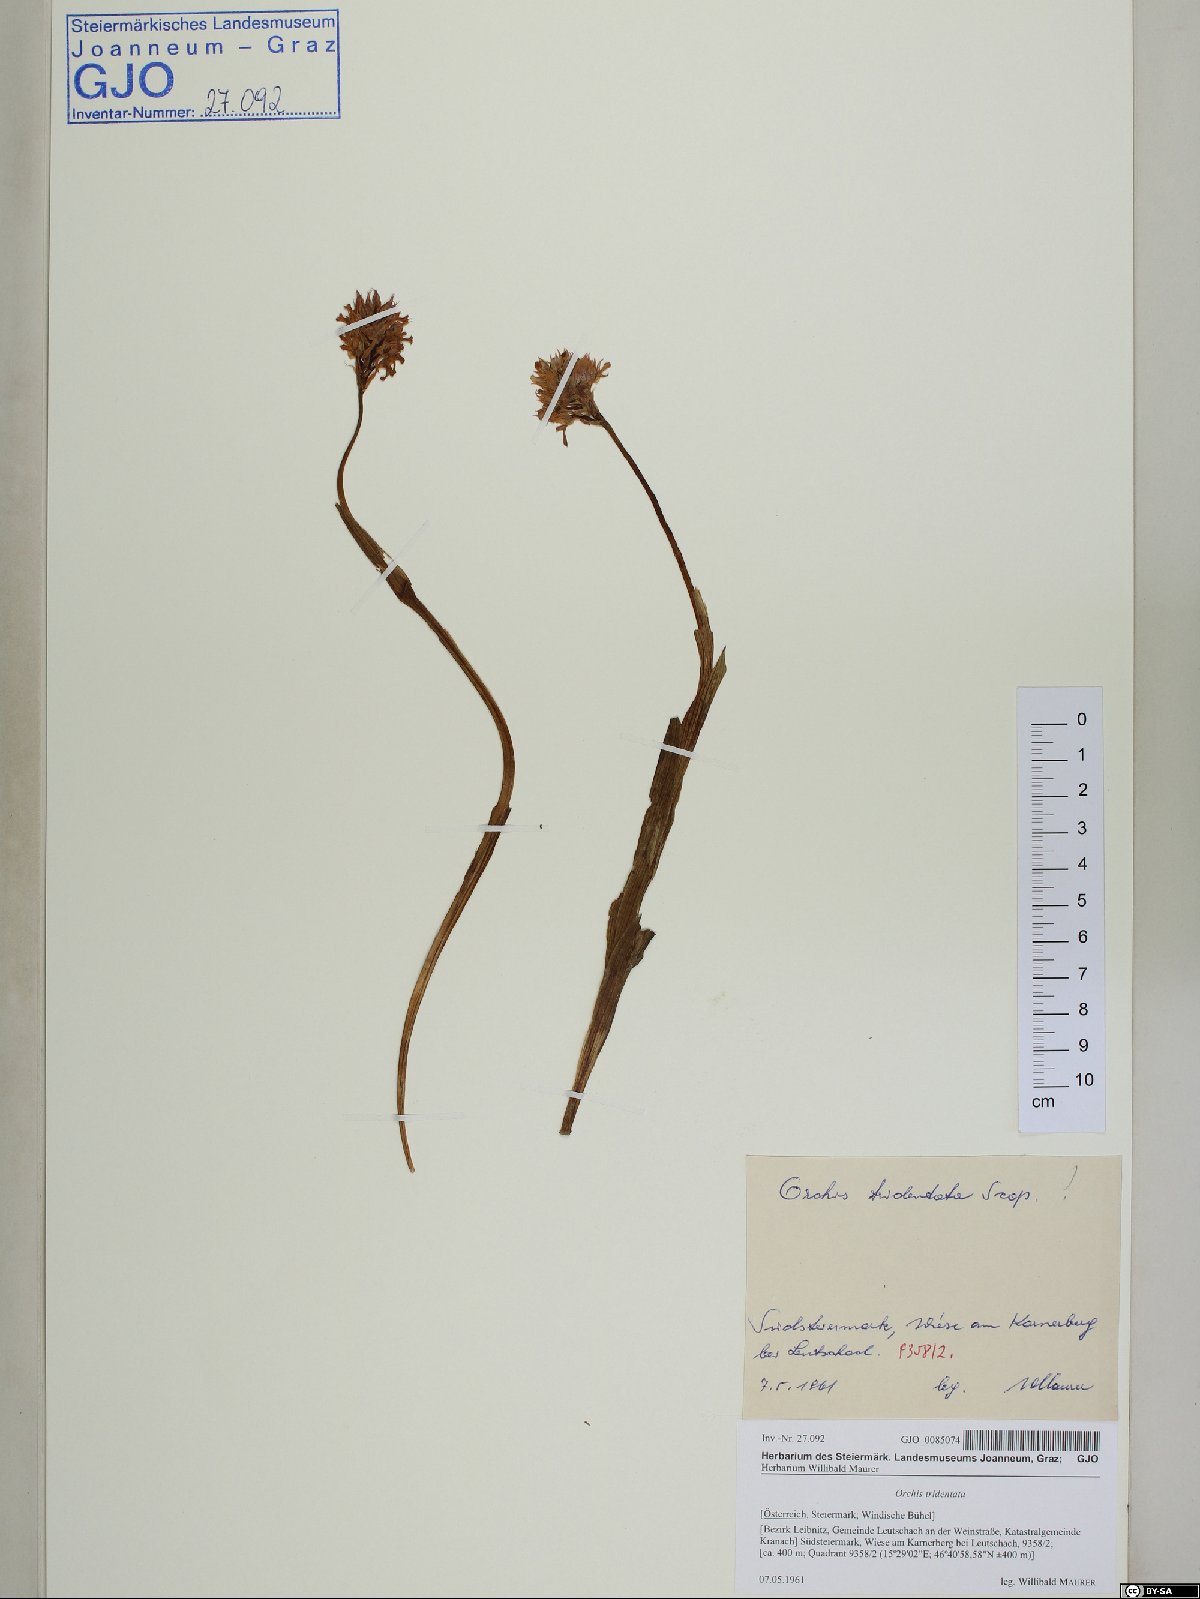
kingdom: Plantae
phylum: Tracheophyta
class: Liliopsida
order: Asparagales
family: Orchidaceae
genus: Neotinea
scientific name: Neotinea tridentata
